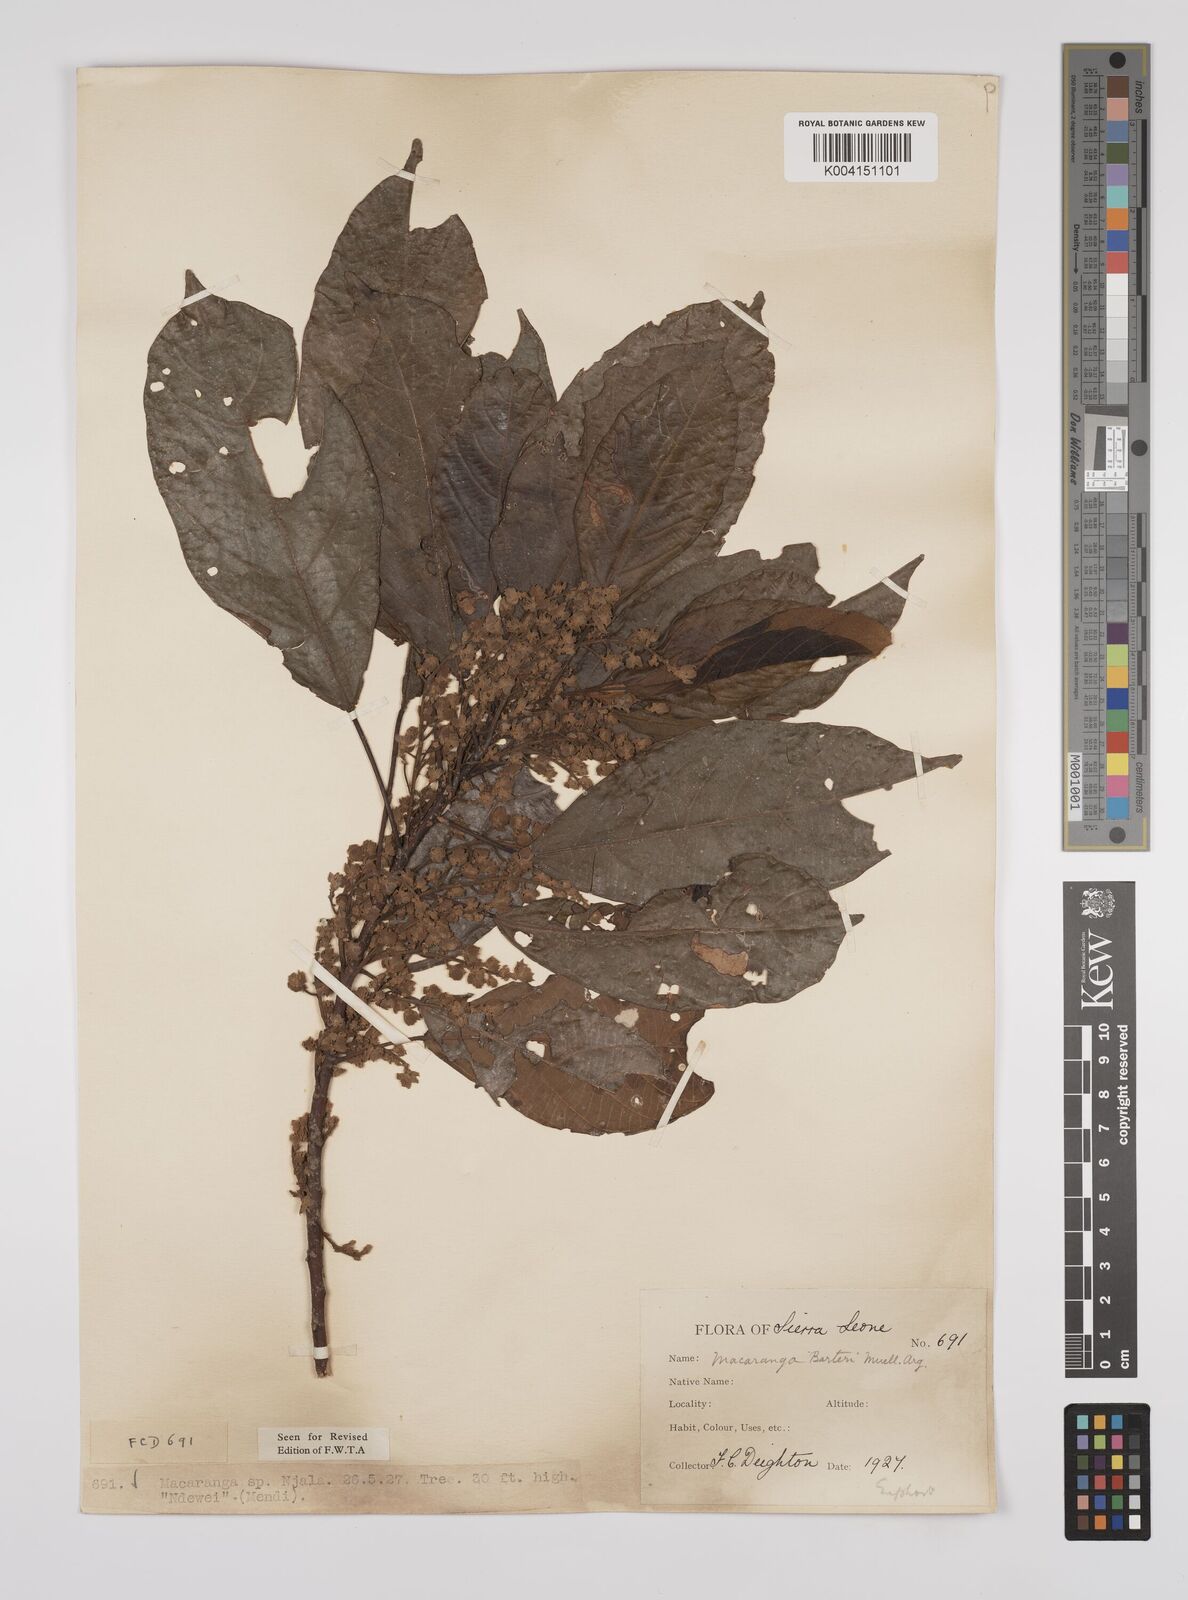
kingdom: Plantae
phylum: Tracheophyta
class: Magnoliopsida
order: Malpighiales
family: Euphorbiaceae
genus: Macaranga
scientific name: Macaranga barteri
